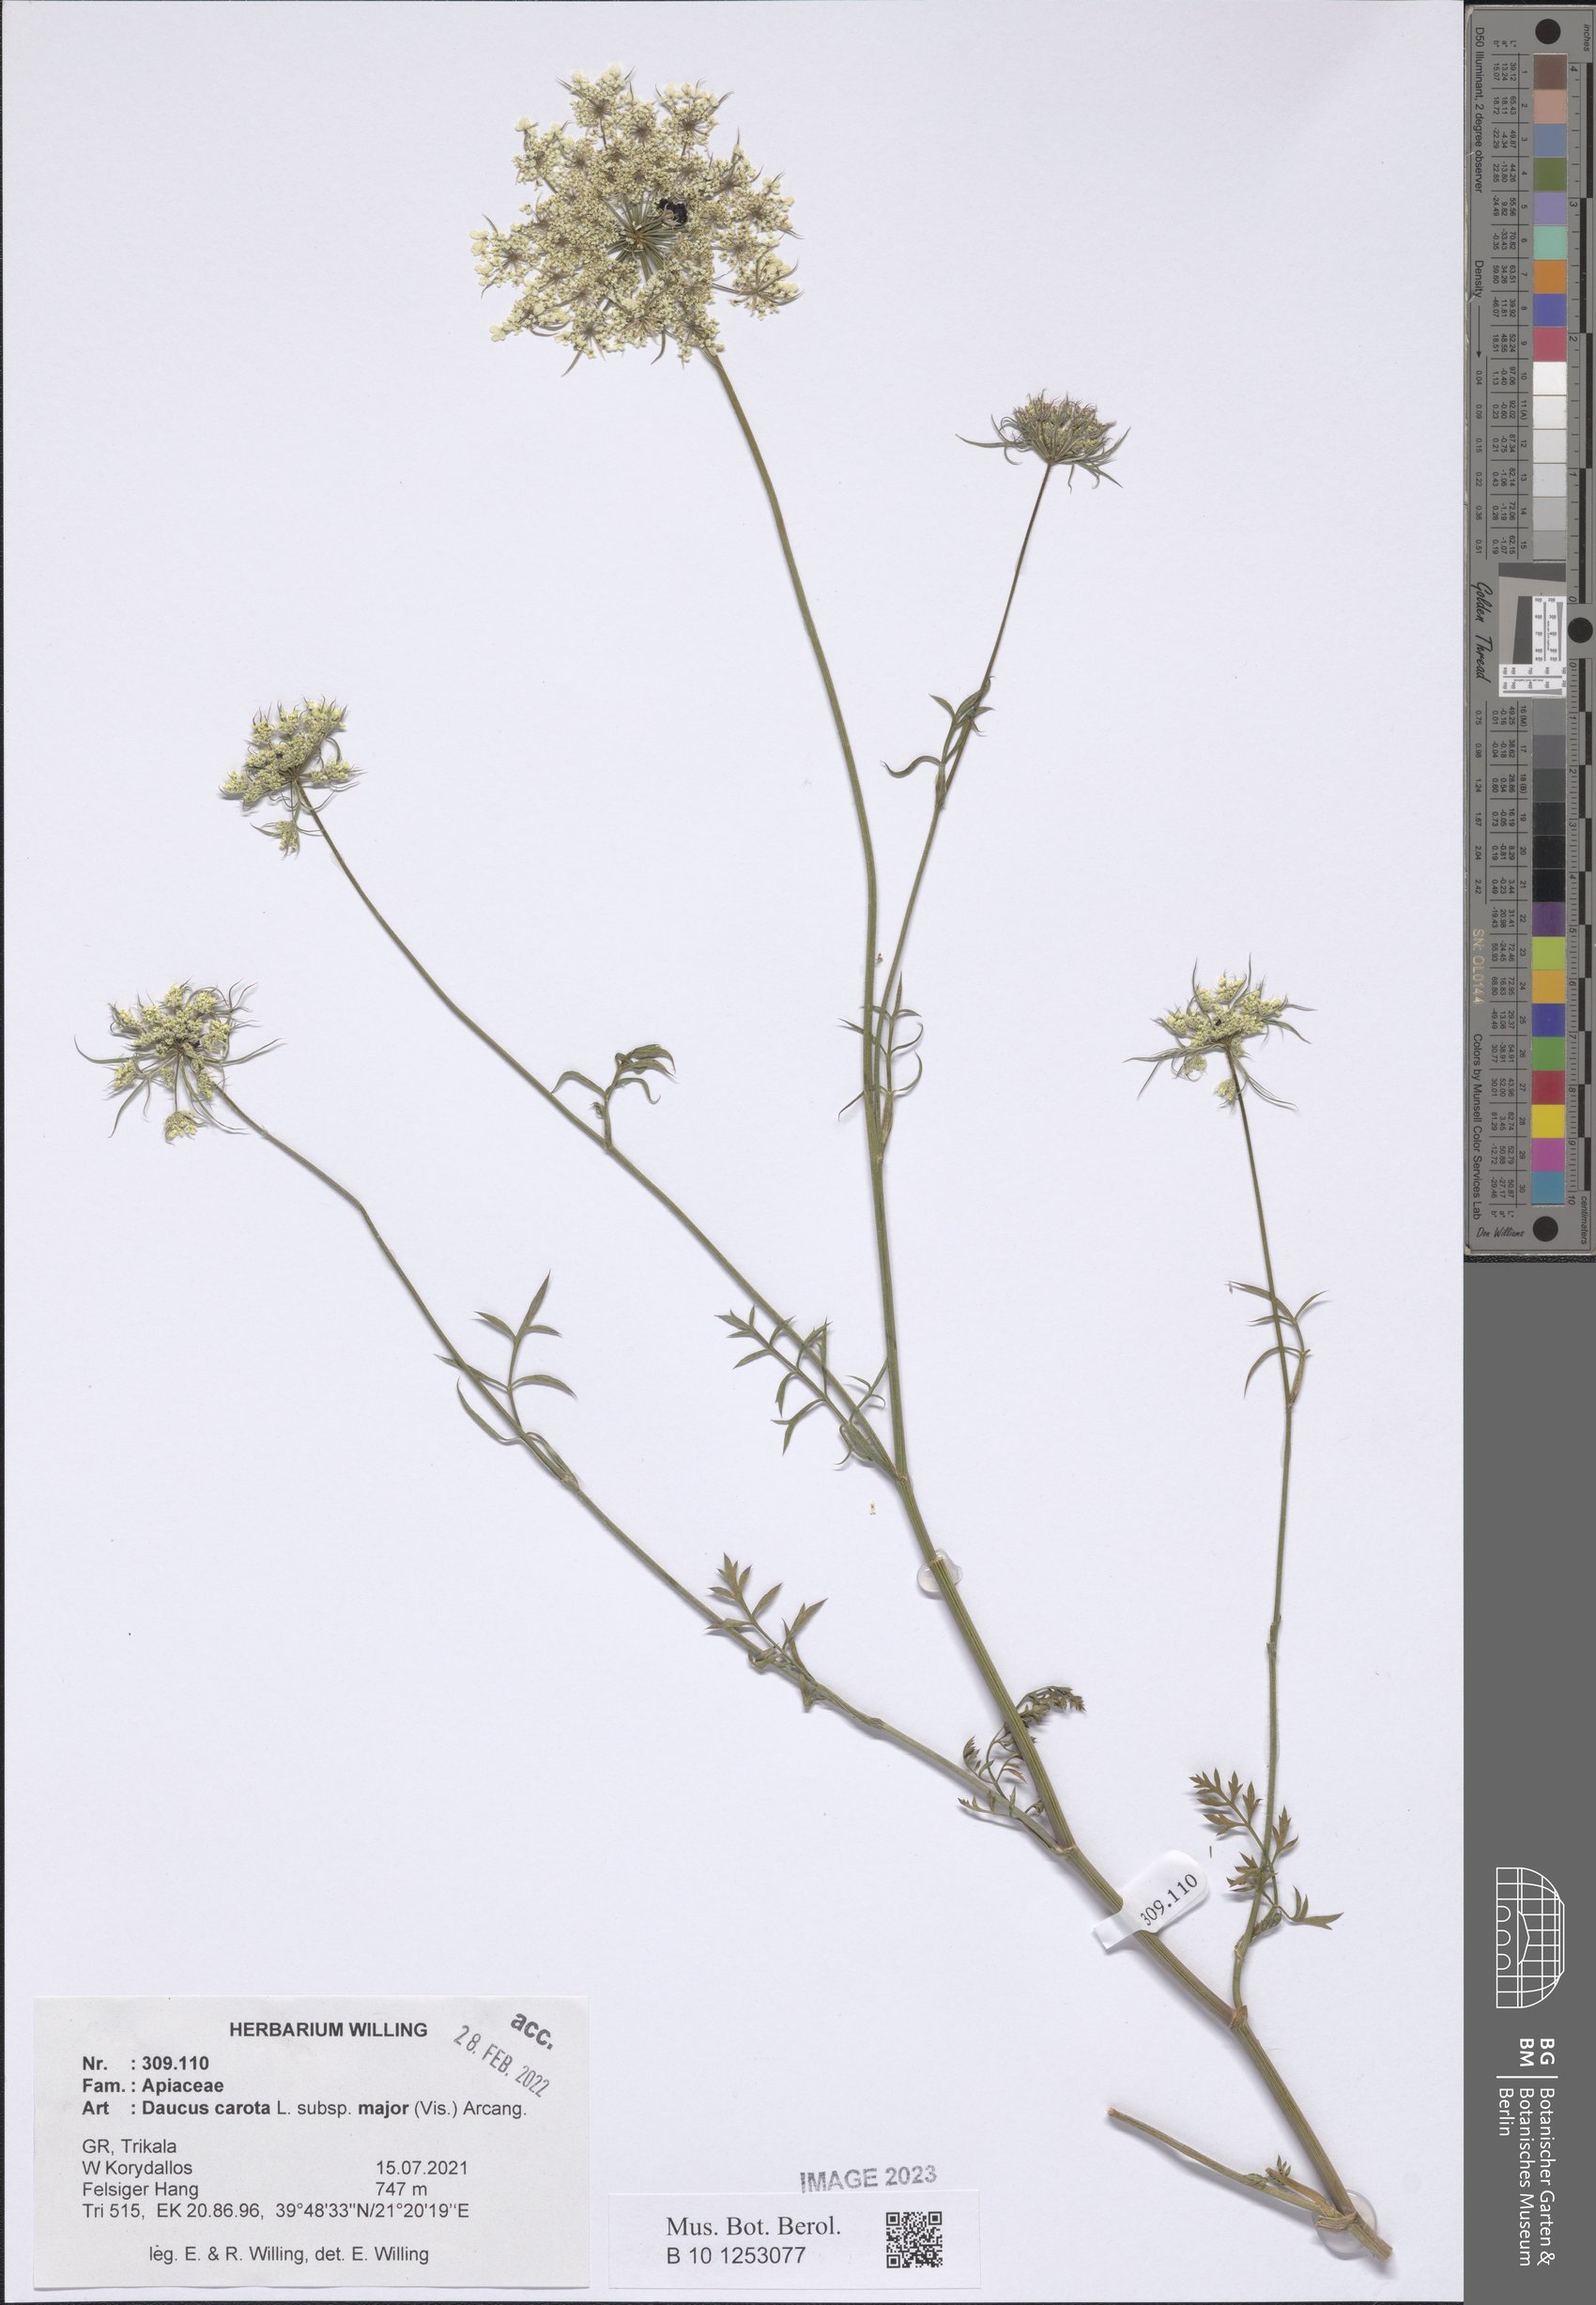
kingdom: Plantae
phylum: Tracheophyta
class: Magnoliopsida
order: Apiales
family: Apiaceae
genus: Daucus
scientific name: Daucus carota
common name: Wild carrot
